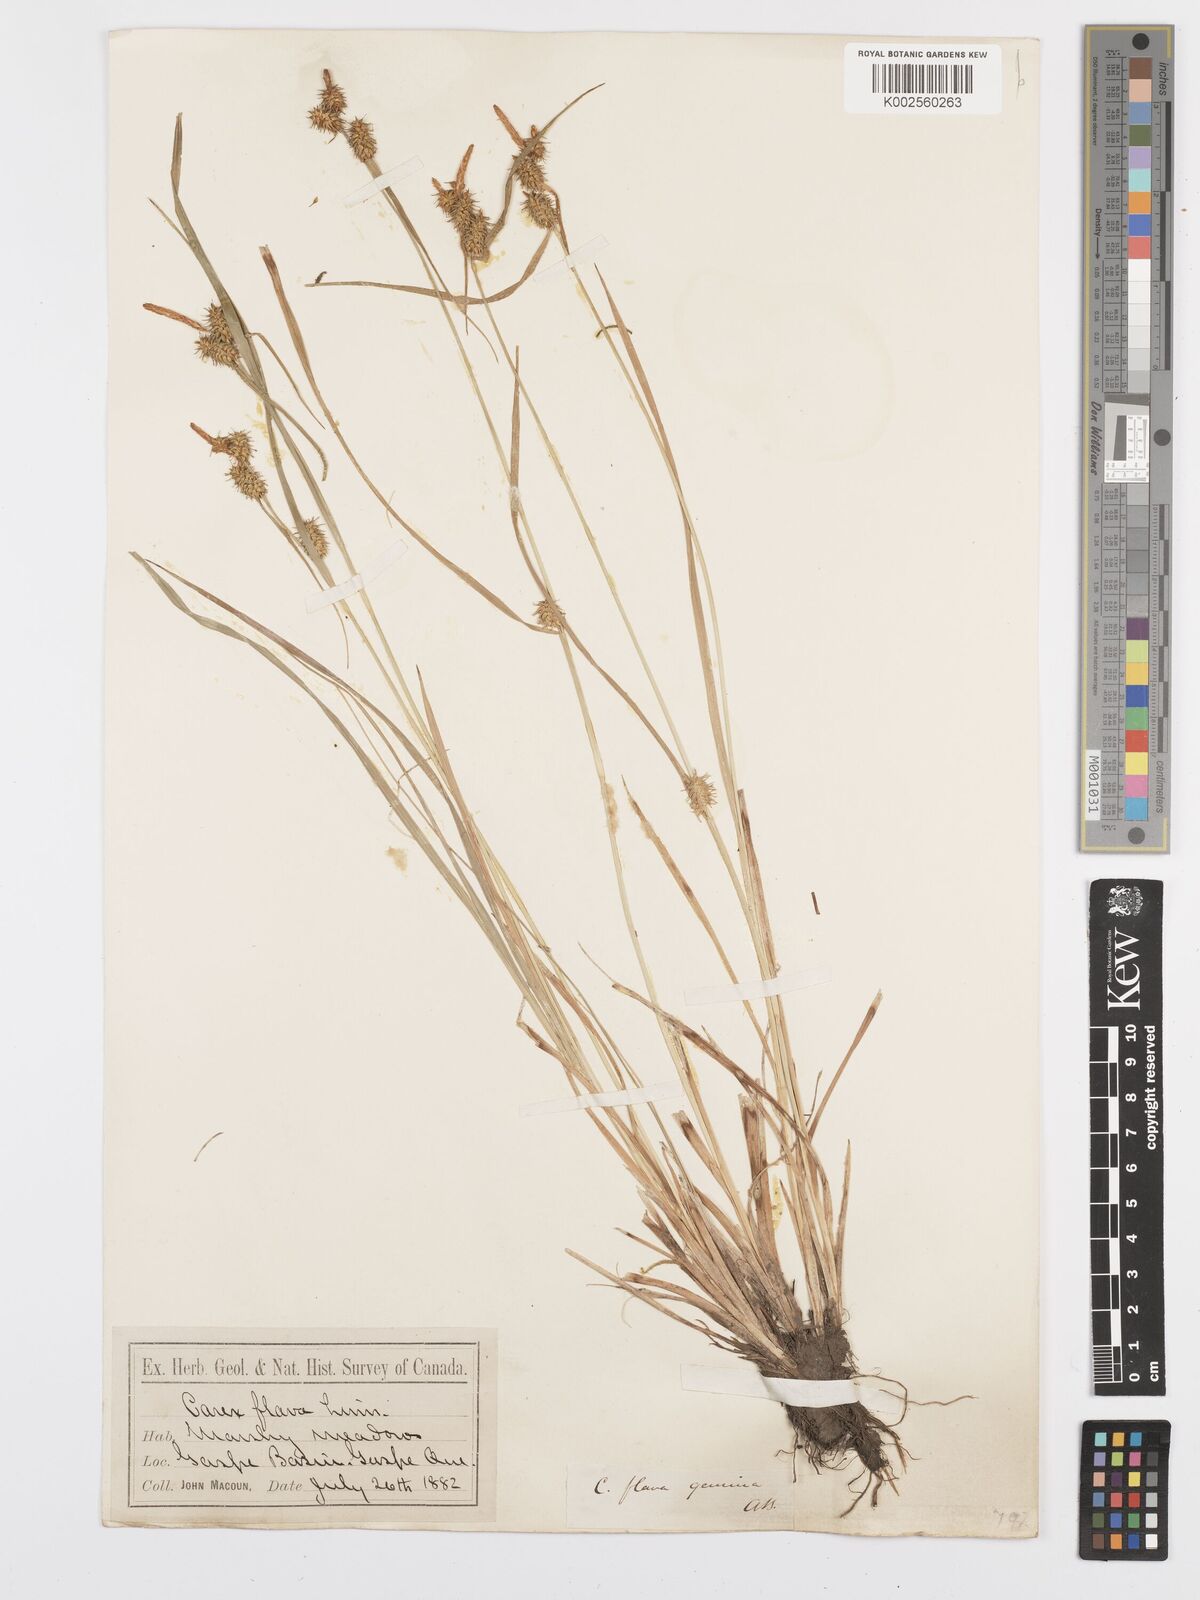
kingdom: Plantae
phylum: Tracheophyta
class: Liliopsida
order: Poales
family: Cyperaceae
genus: Carex
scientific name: Carex flava
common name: Large yellow-sedge
